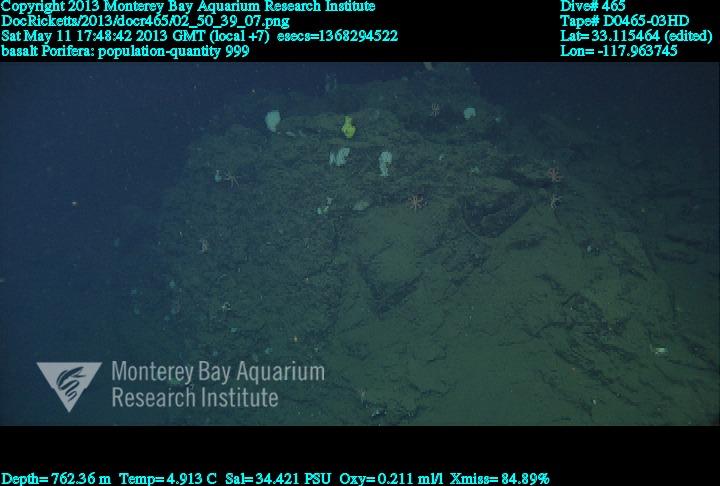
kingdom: Animalia
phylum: Porifera
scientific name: Porifera
